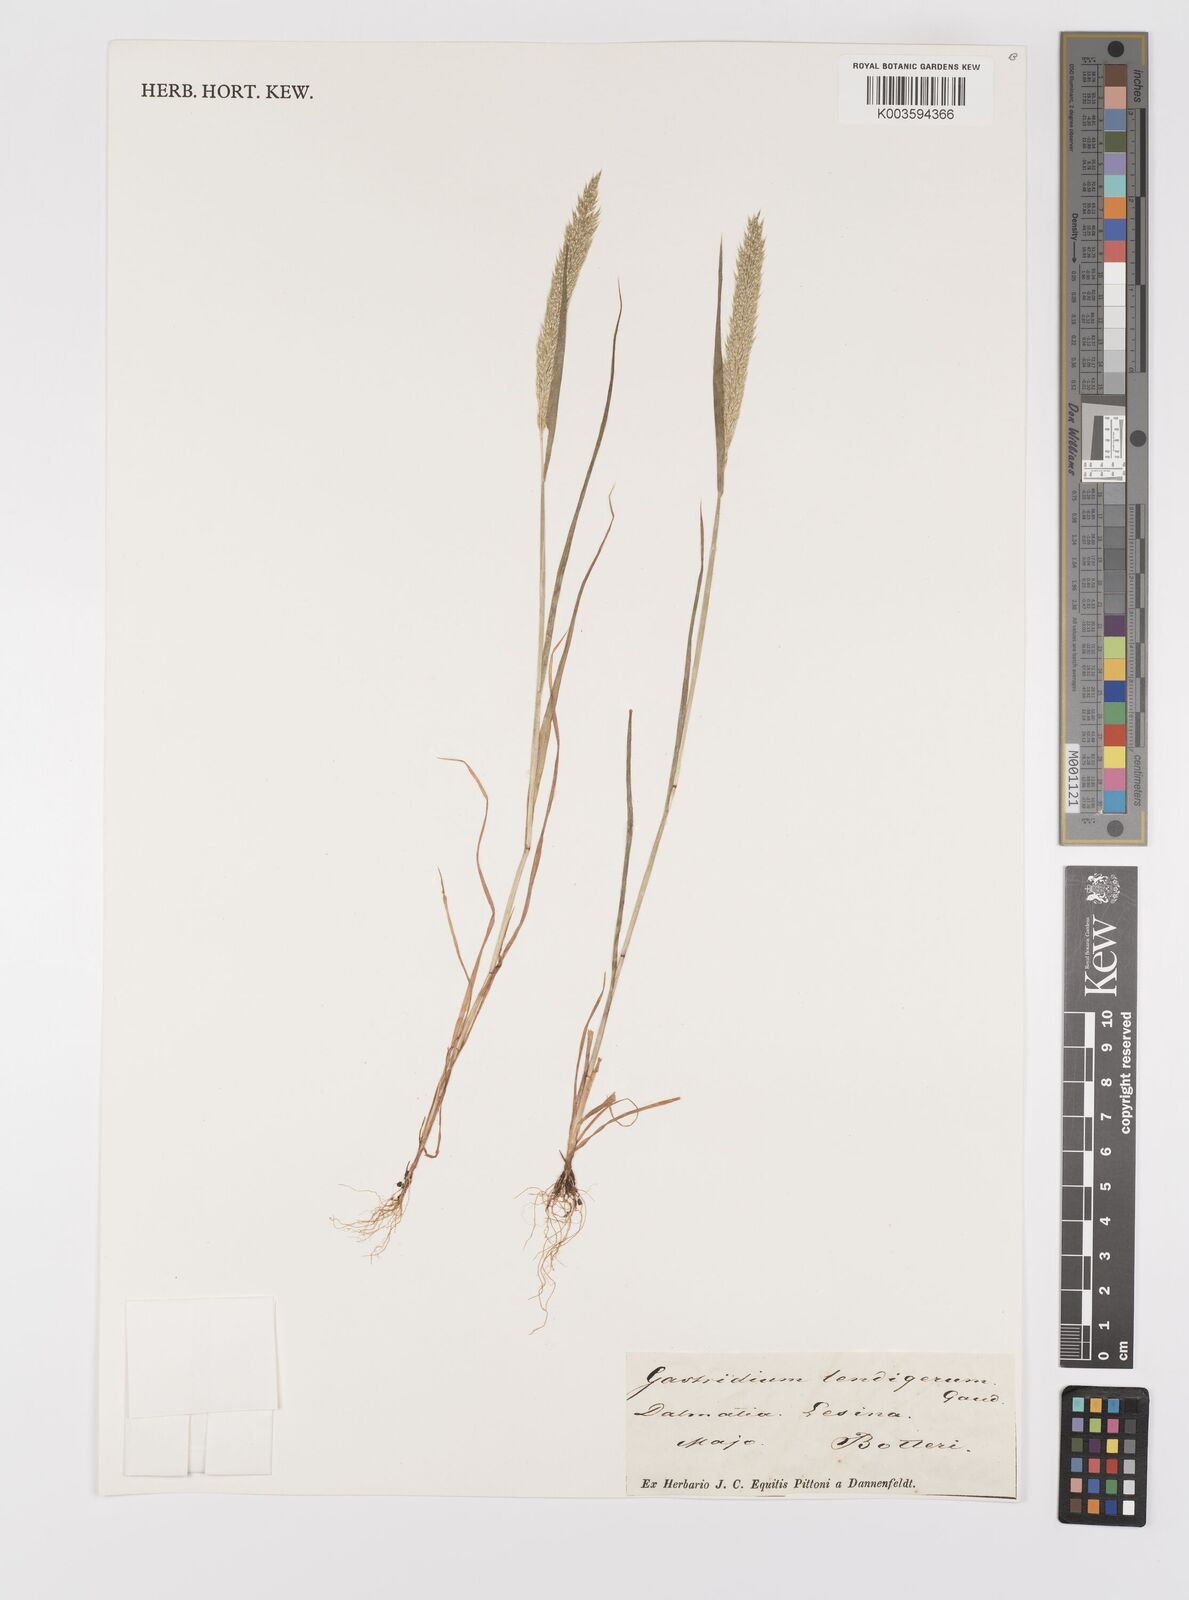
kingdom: Plantae
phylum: Tracheophyta
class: Liliopsida
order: Poales
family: Poaceae
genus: Gastridium
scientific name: Gastridium phleoides
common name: Nit grass
